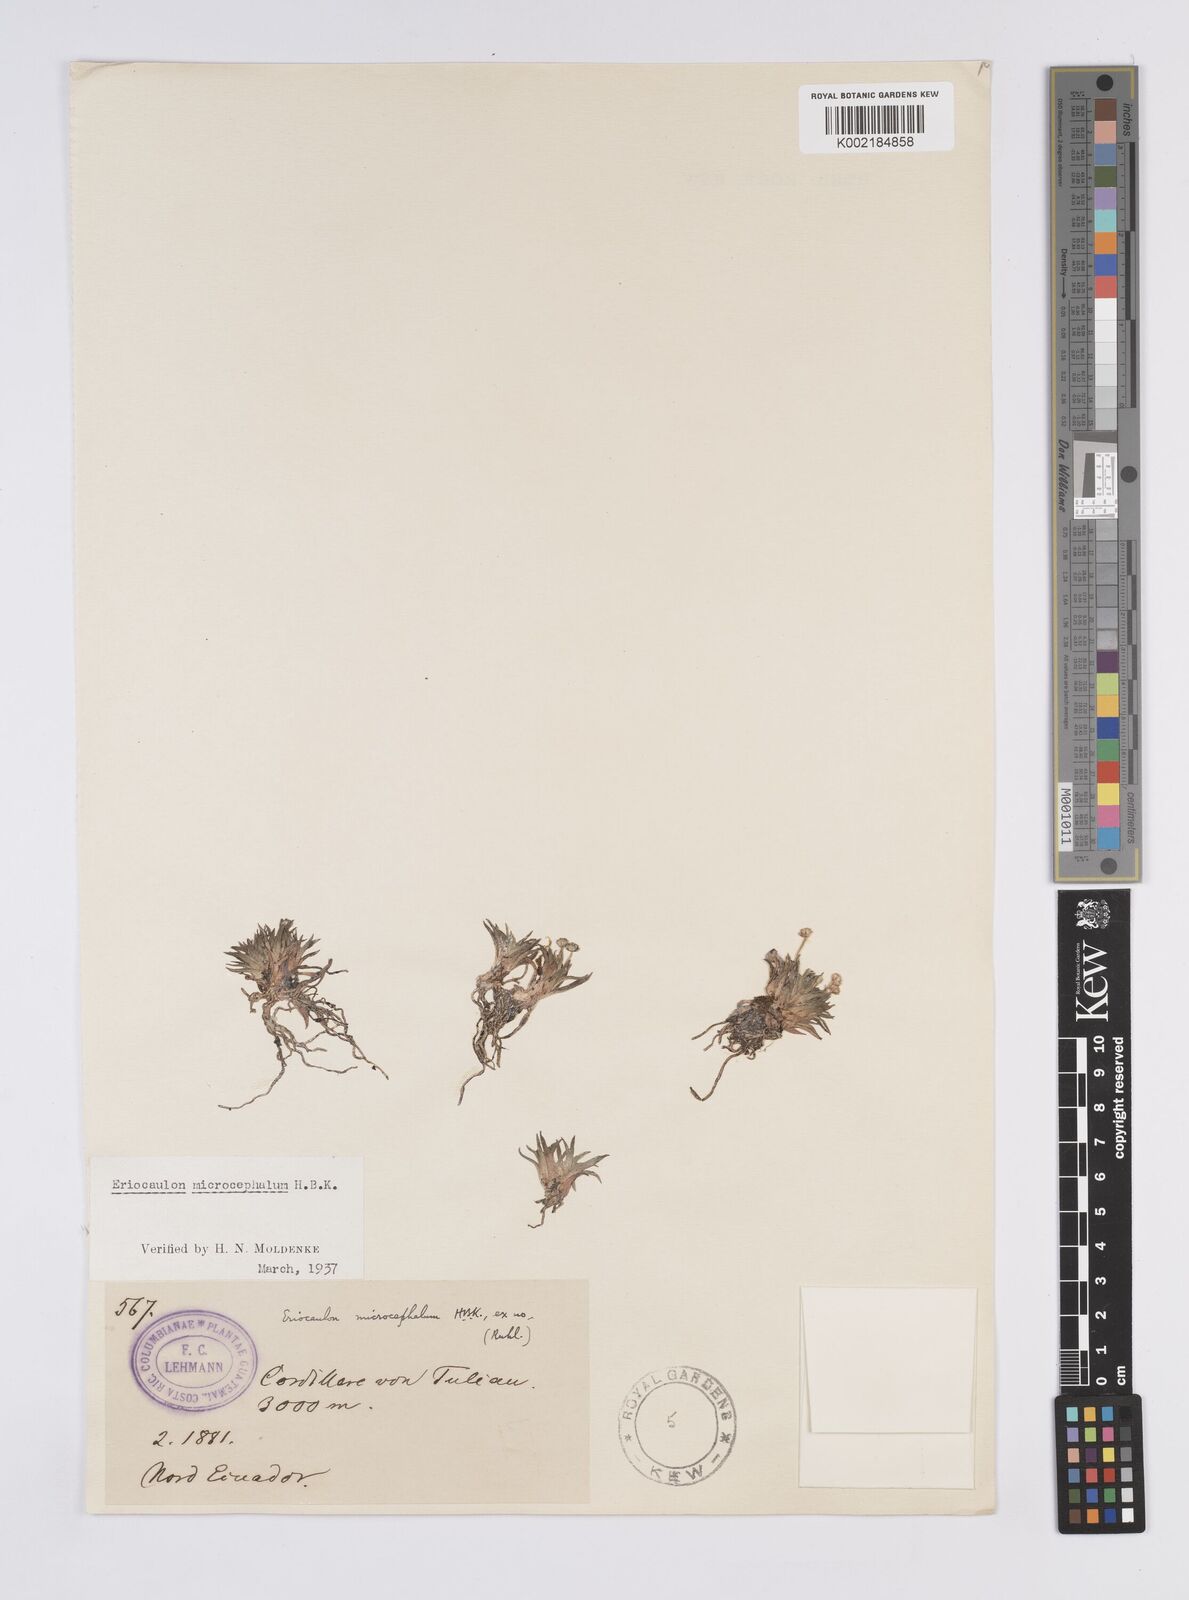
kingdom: Plantae
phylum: Tracheophyta
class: Liliopsida
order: Poales
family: Eriocaulaceae
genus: Eriocaulon
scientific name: Eriocaulon benthamii
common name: Bentham's pipewort
